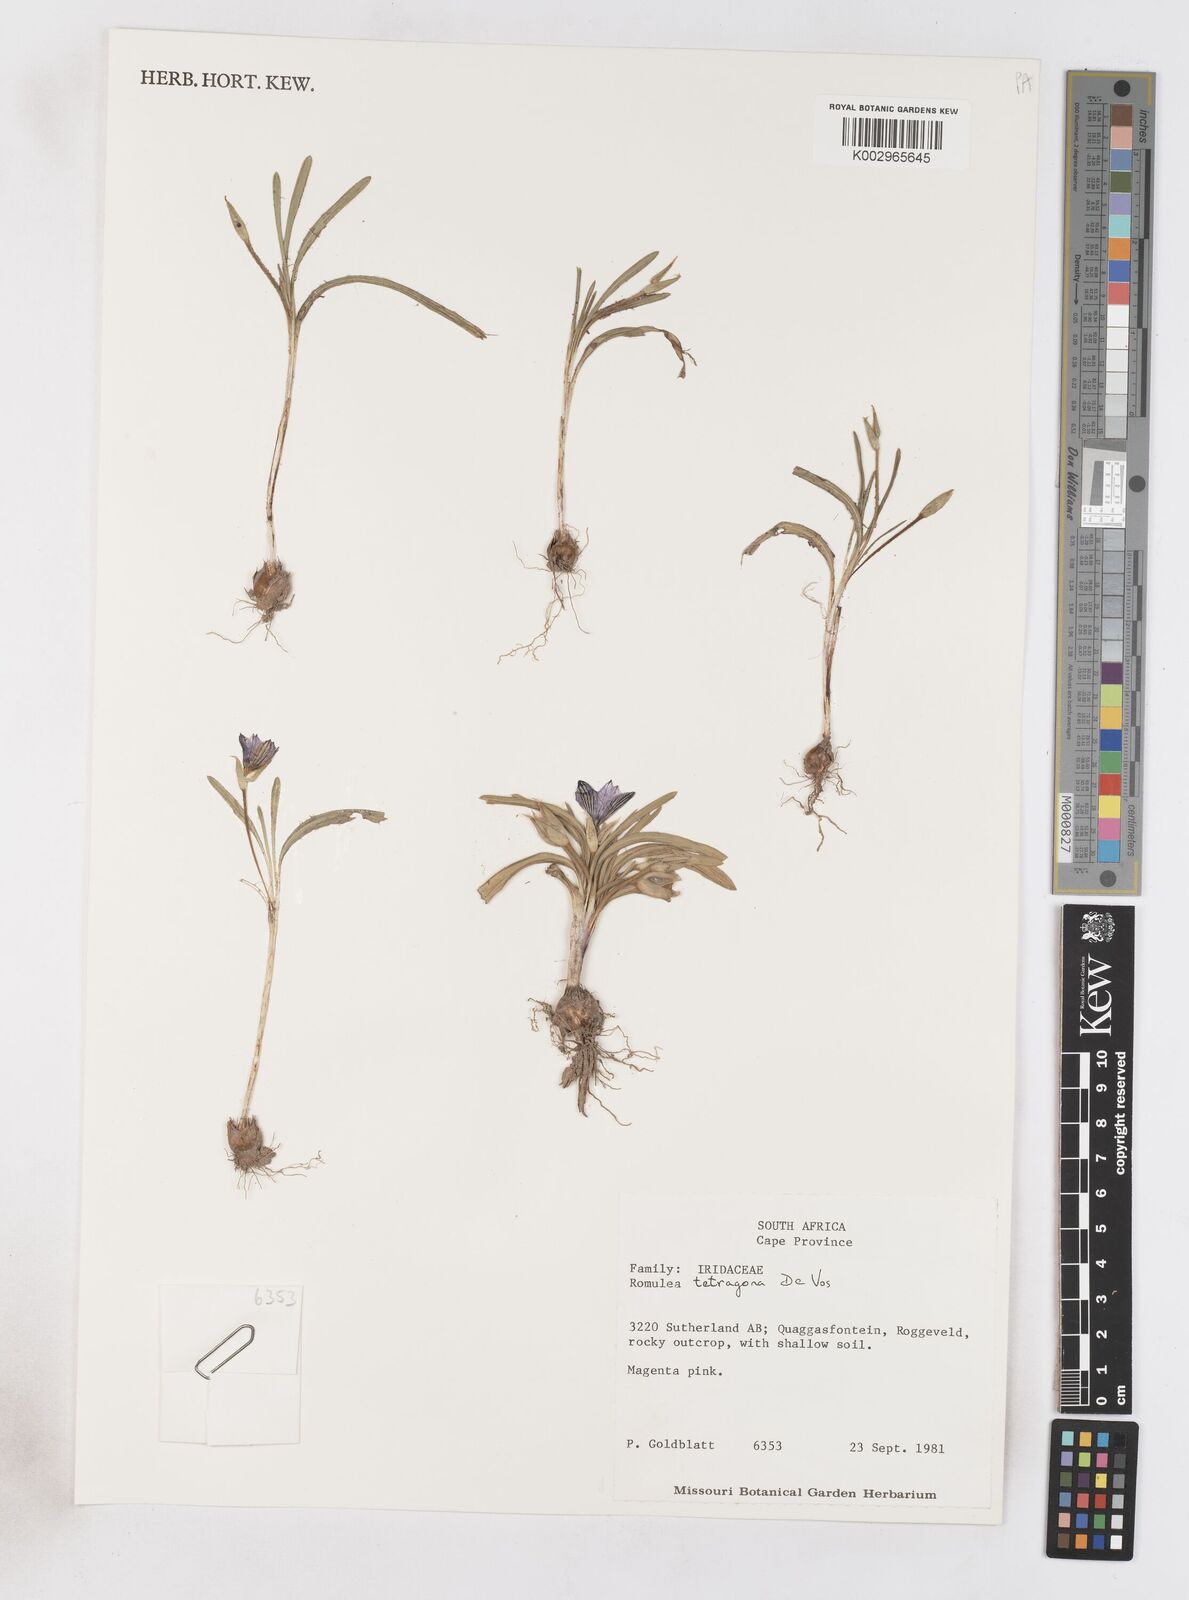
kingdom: Plantae
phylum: Tracheophyta
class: Liliopsida
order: Asparagales
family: Iridaceae
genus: Romulea
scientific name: Romulea tetragona
